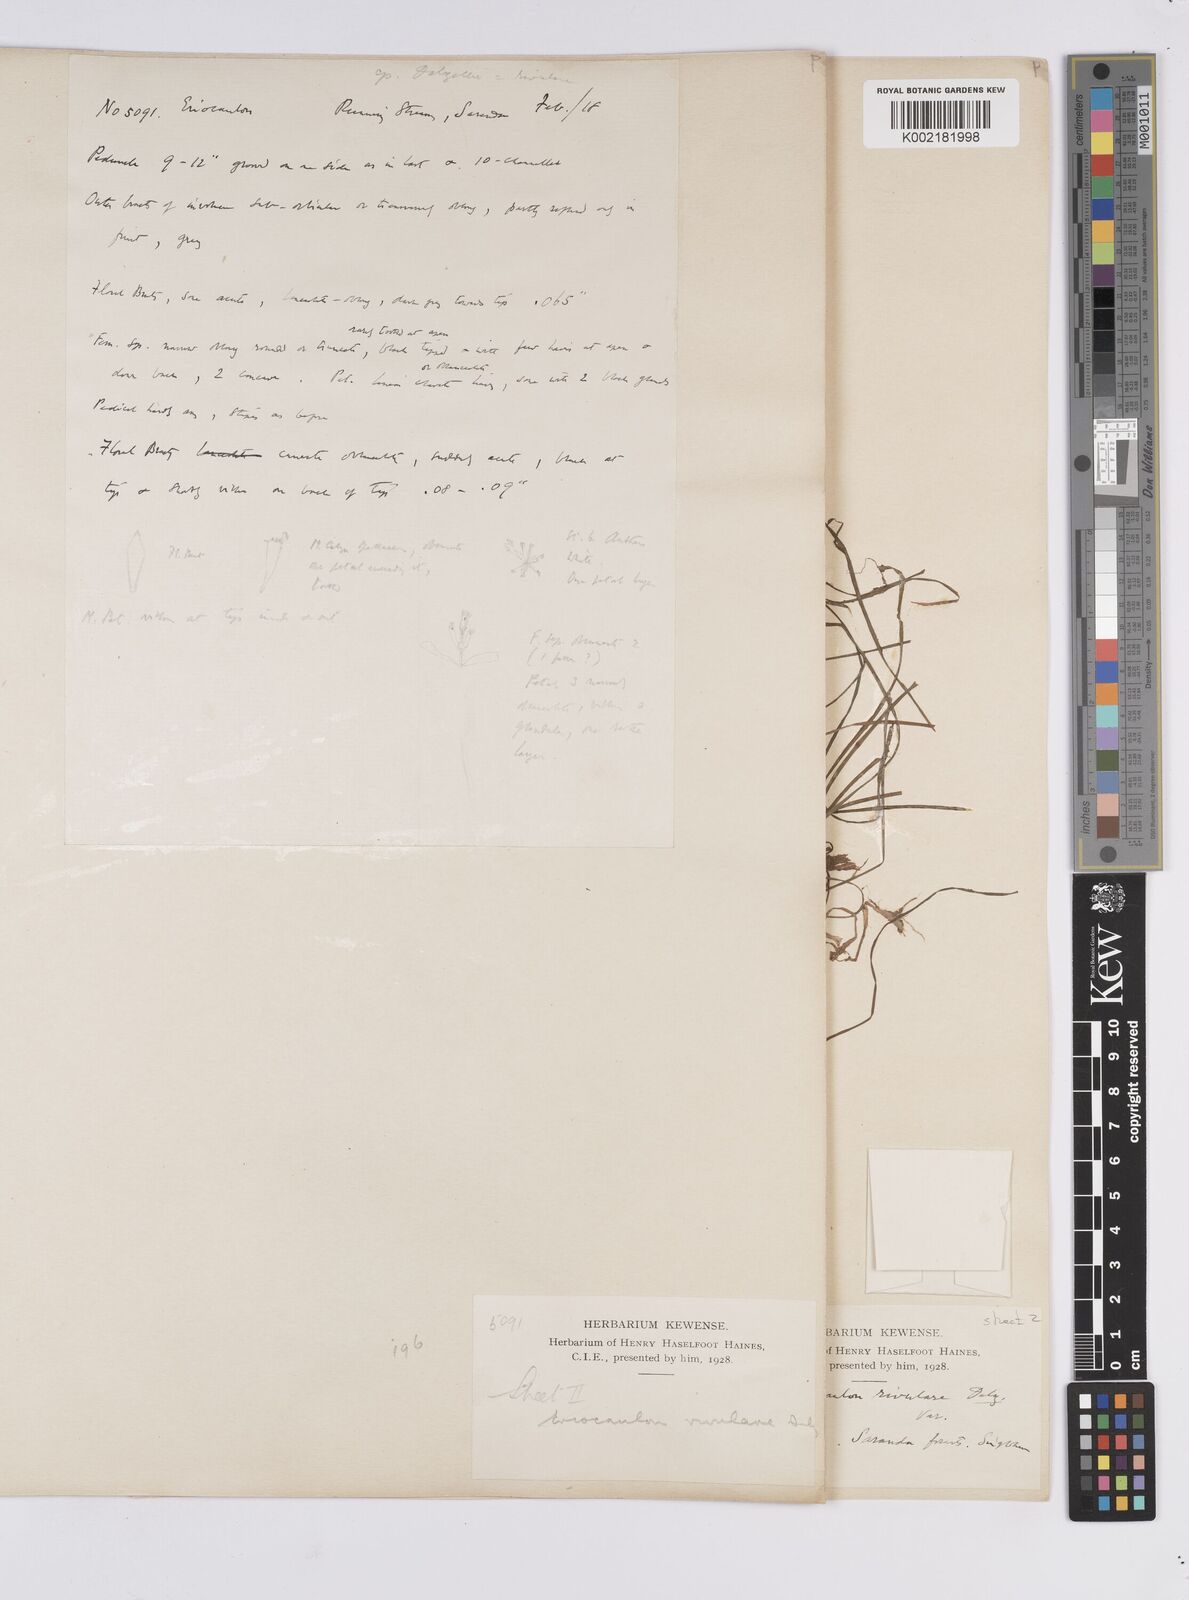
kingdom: Plantae
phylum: Tracheophyta
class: Liliopsida
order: Poales
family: Eriocaulaceae
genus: Eriocaulon
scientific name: Eriocaulon fluviatile
